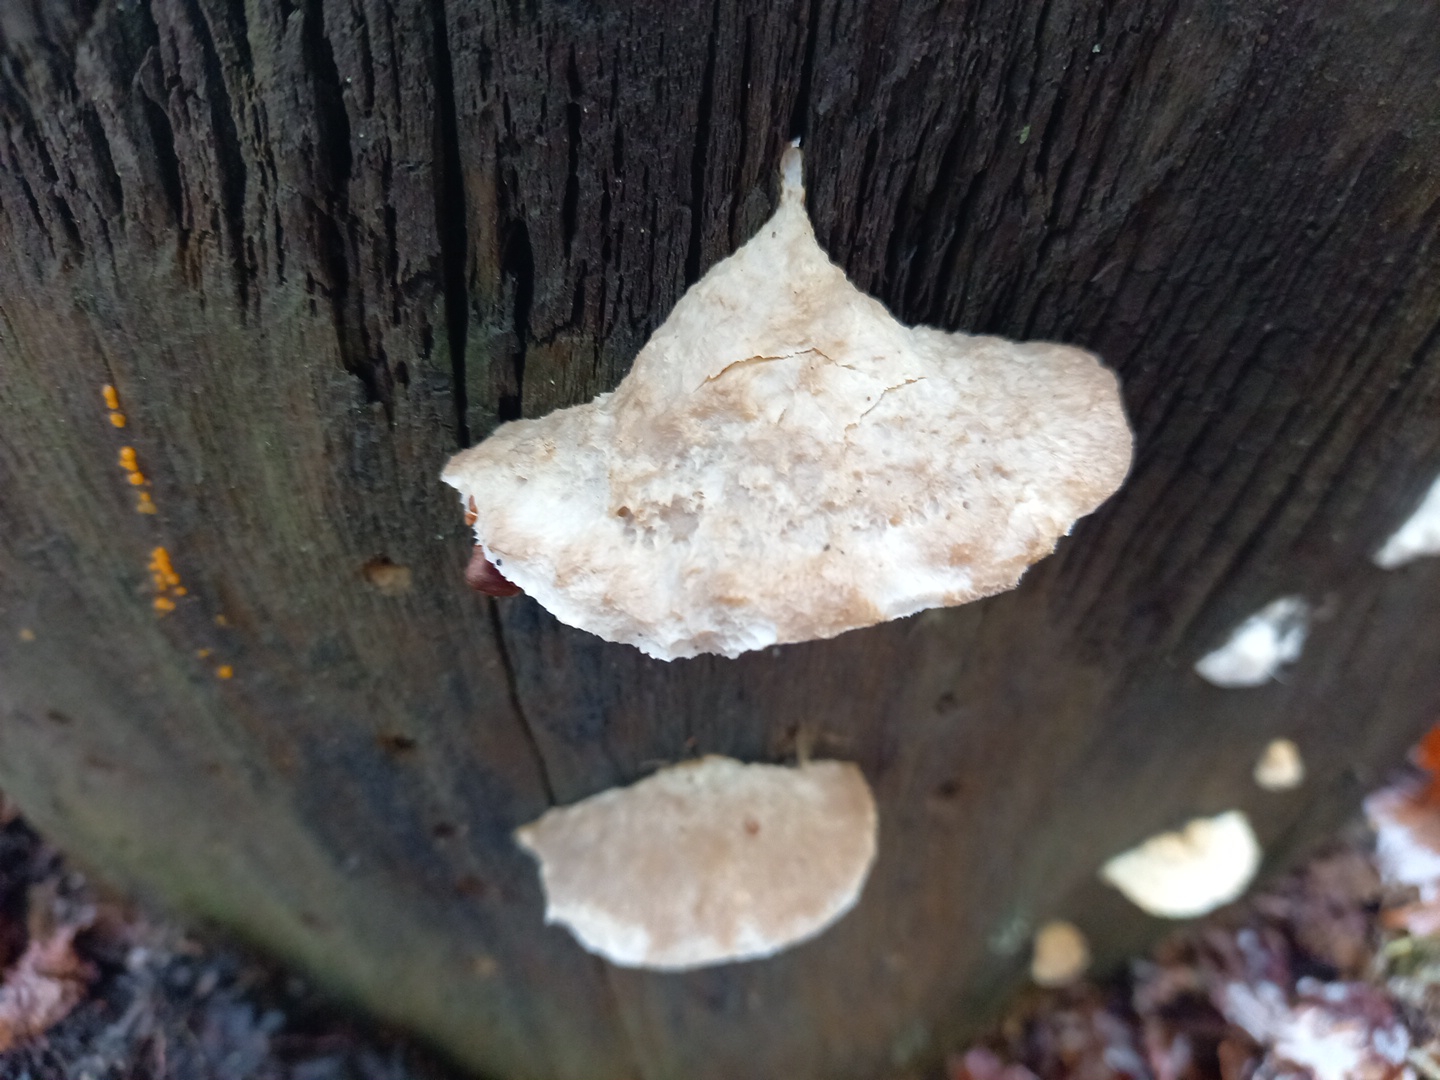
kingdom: Fungi
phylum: Basidiomycota
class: Agaricomycetes
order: Polyporales
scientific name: Polyporales
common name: poresvampordenen
